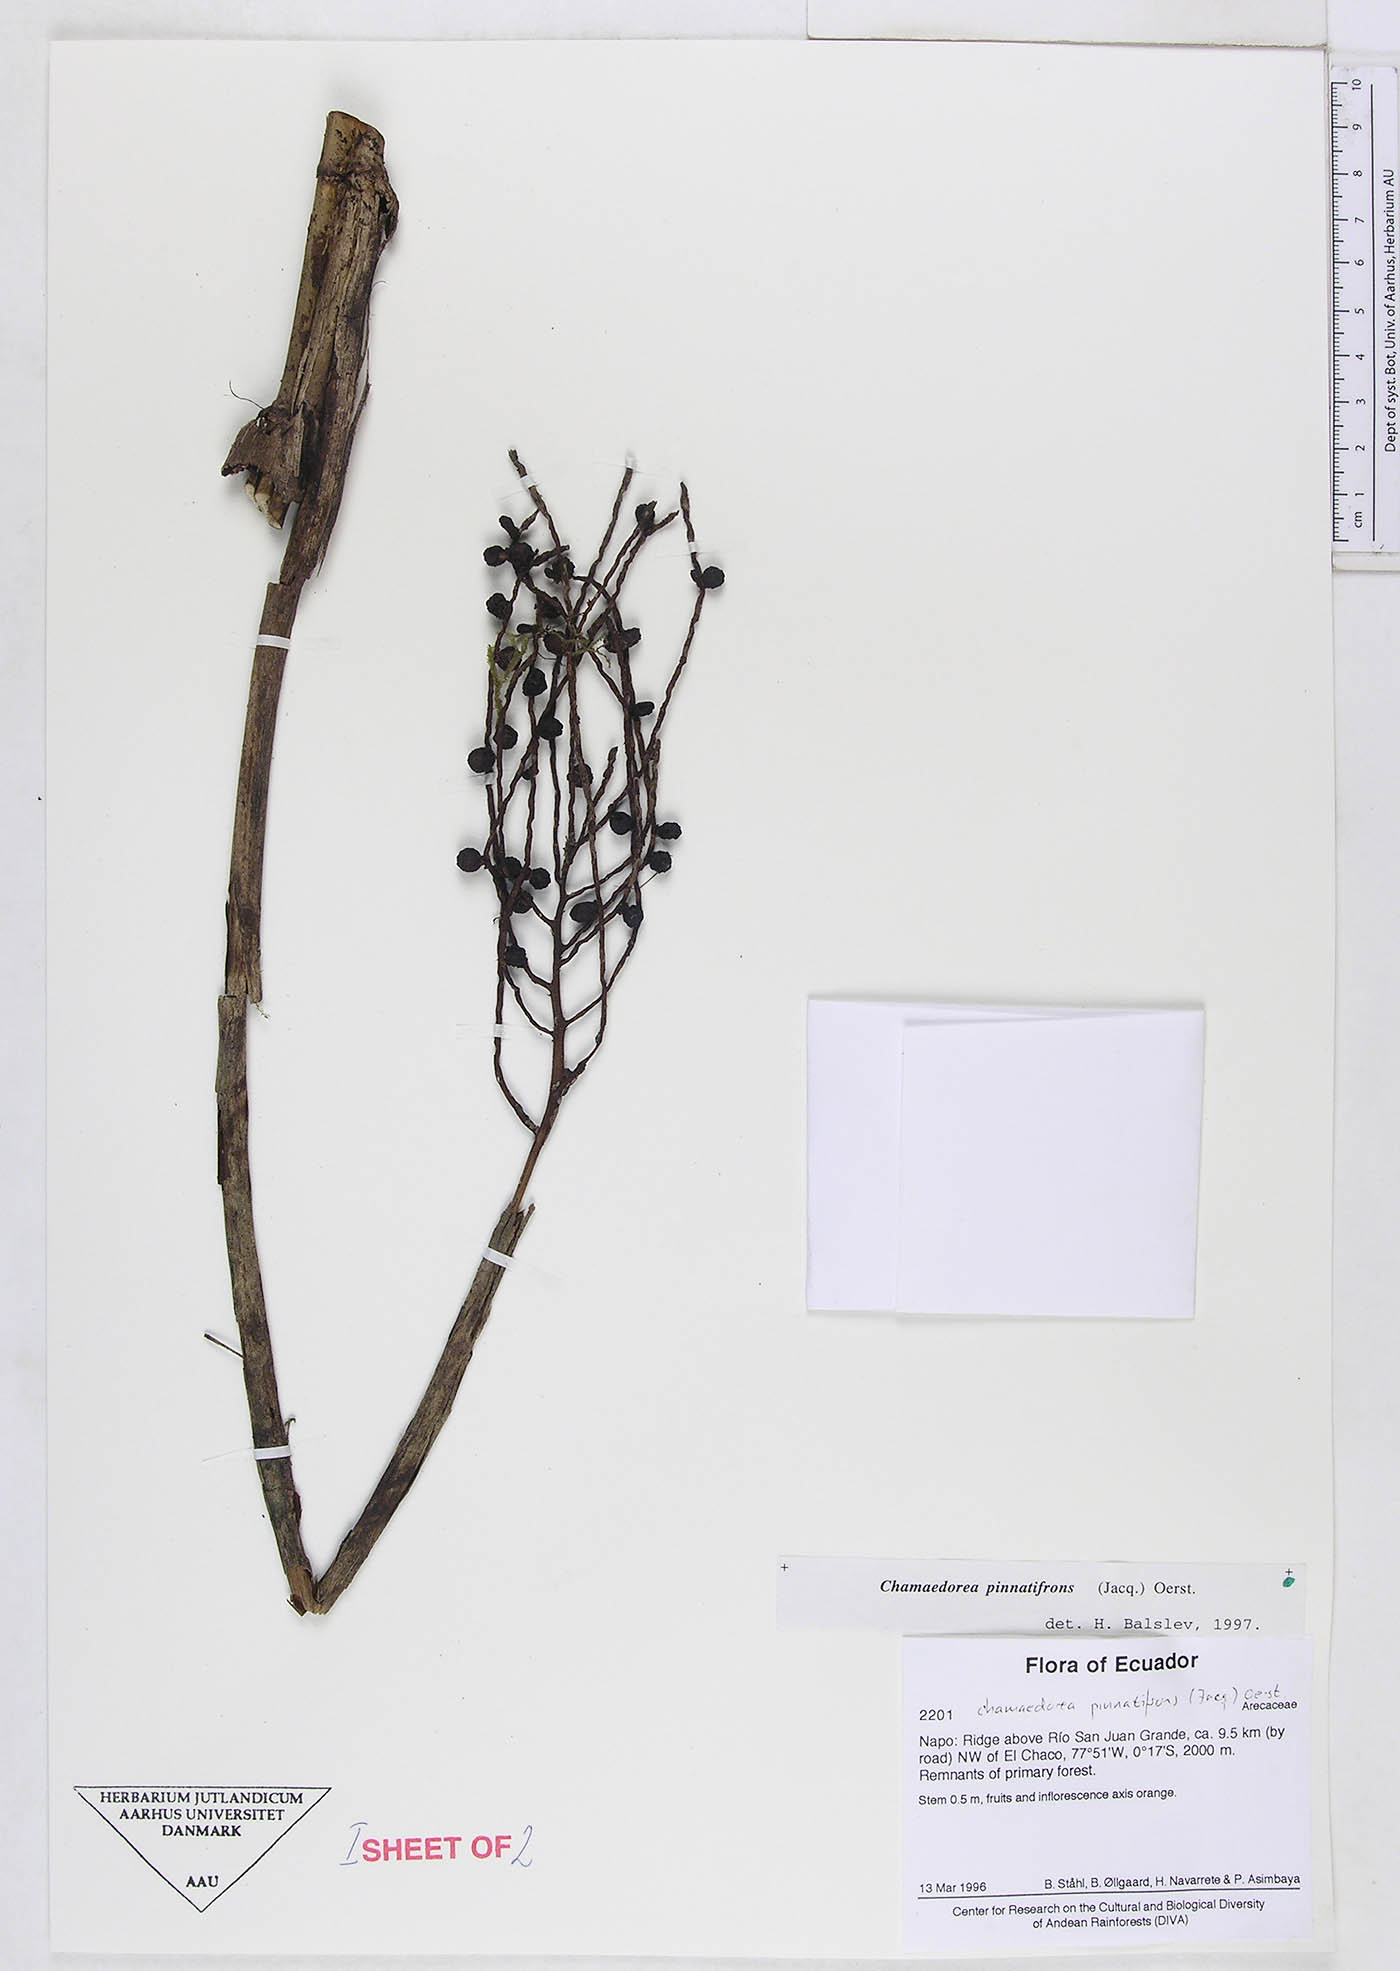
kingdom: Plantae
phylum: Tracheophyta
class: Liliopsida
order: Arecales
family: Arecaceae
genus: Chamaedorea
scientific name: Chamaedorea pinnatifrons
